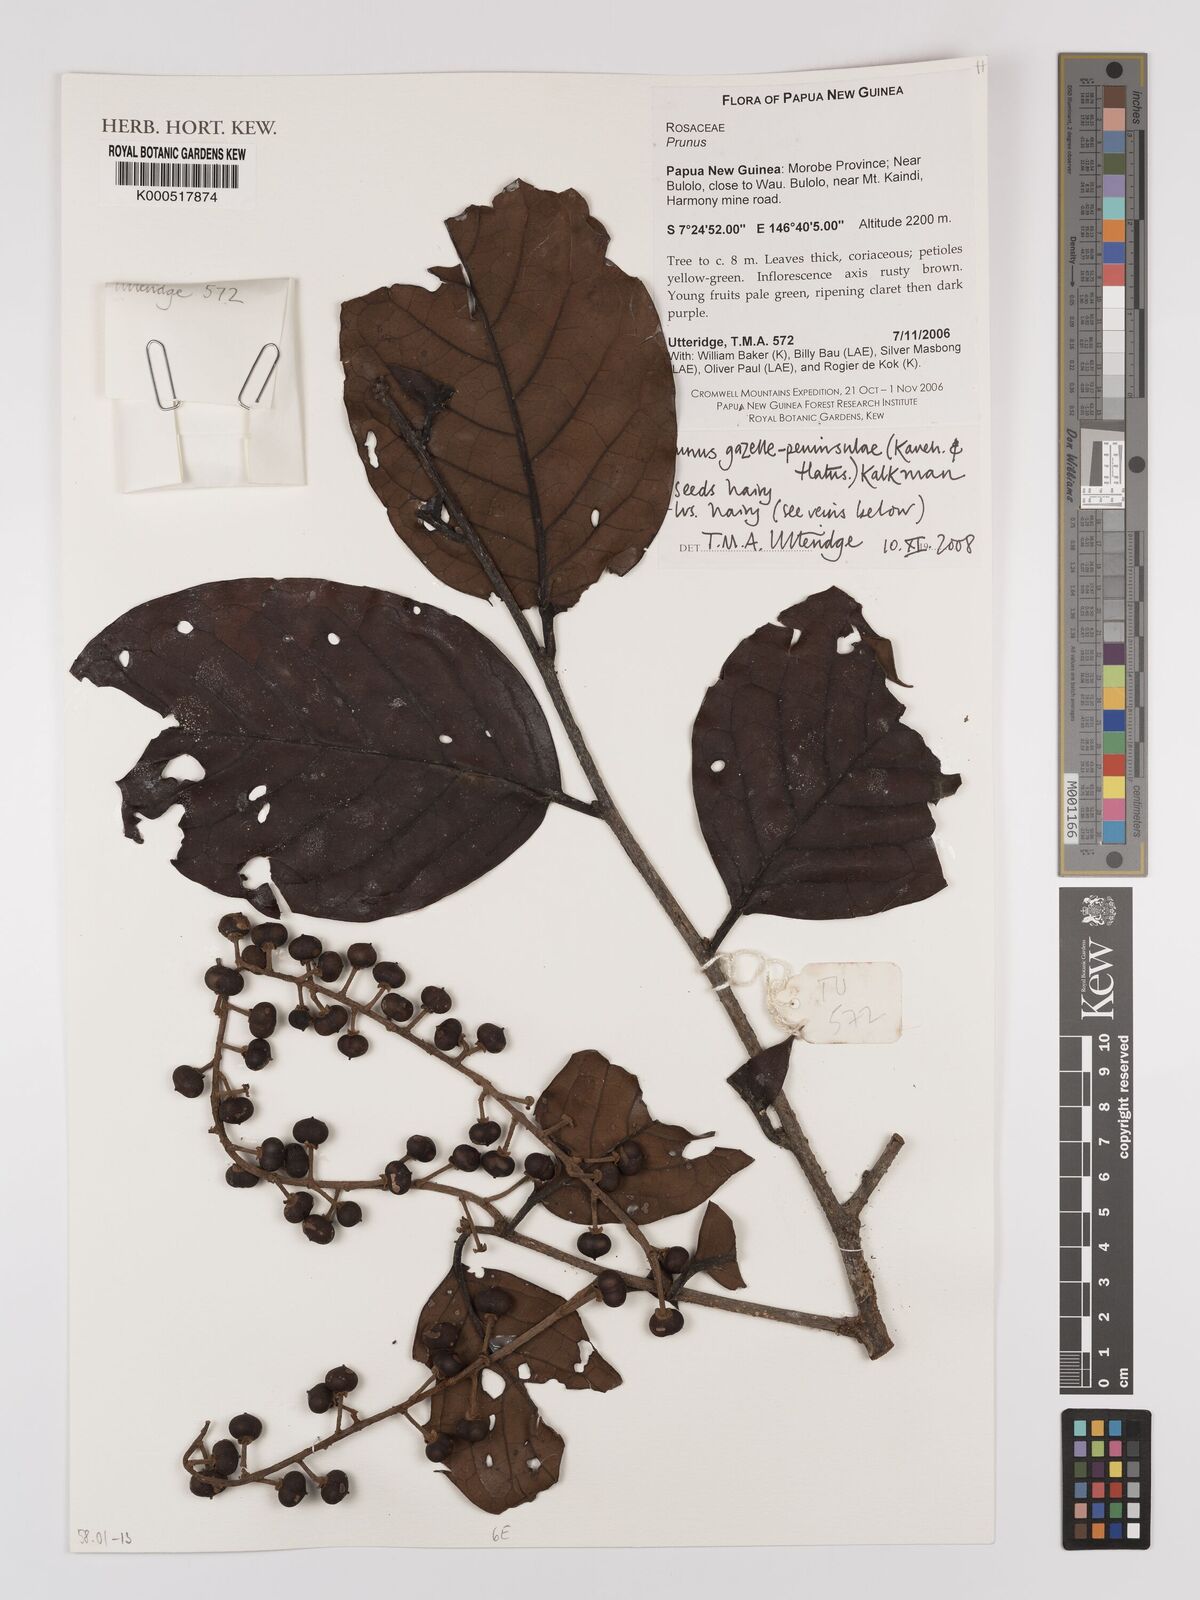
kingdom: Plantae
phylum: Tracheophyta
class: Magnoliopsida
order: Rosales
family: Rosaceae
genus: Prunus
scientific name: Prunus gazelle-peninsulae
